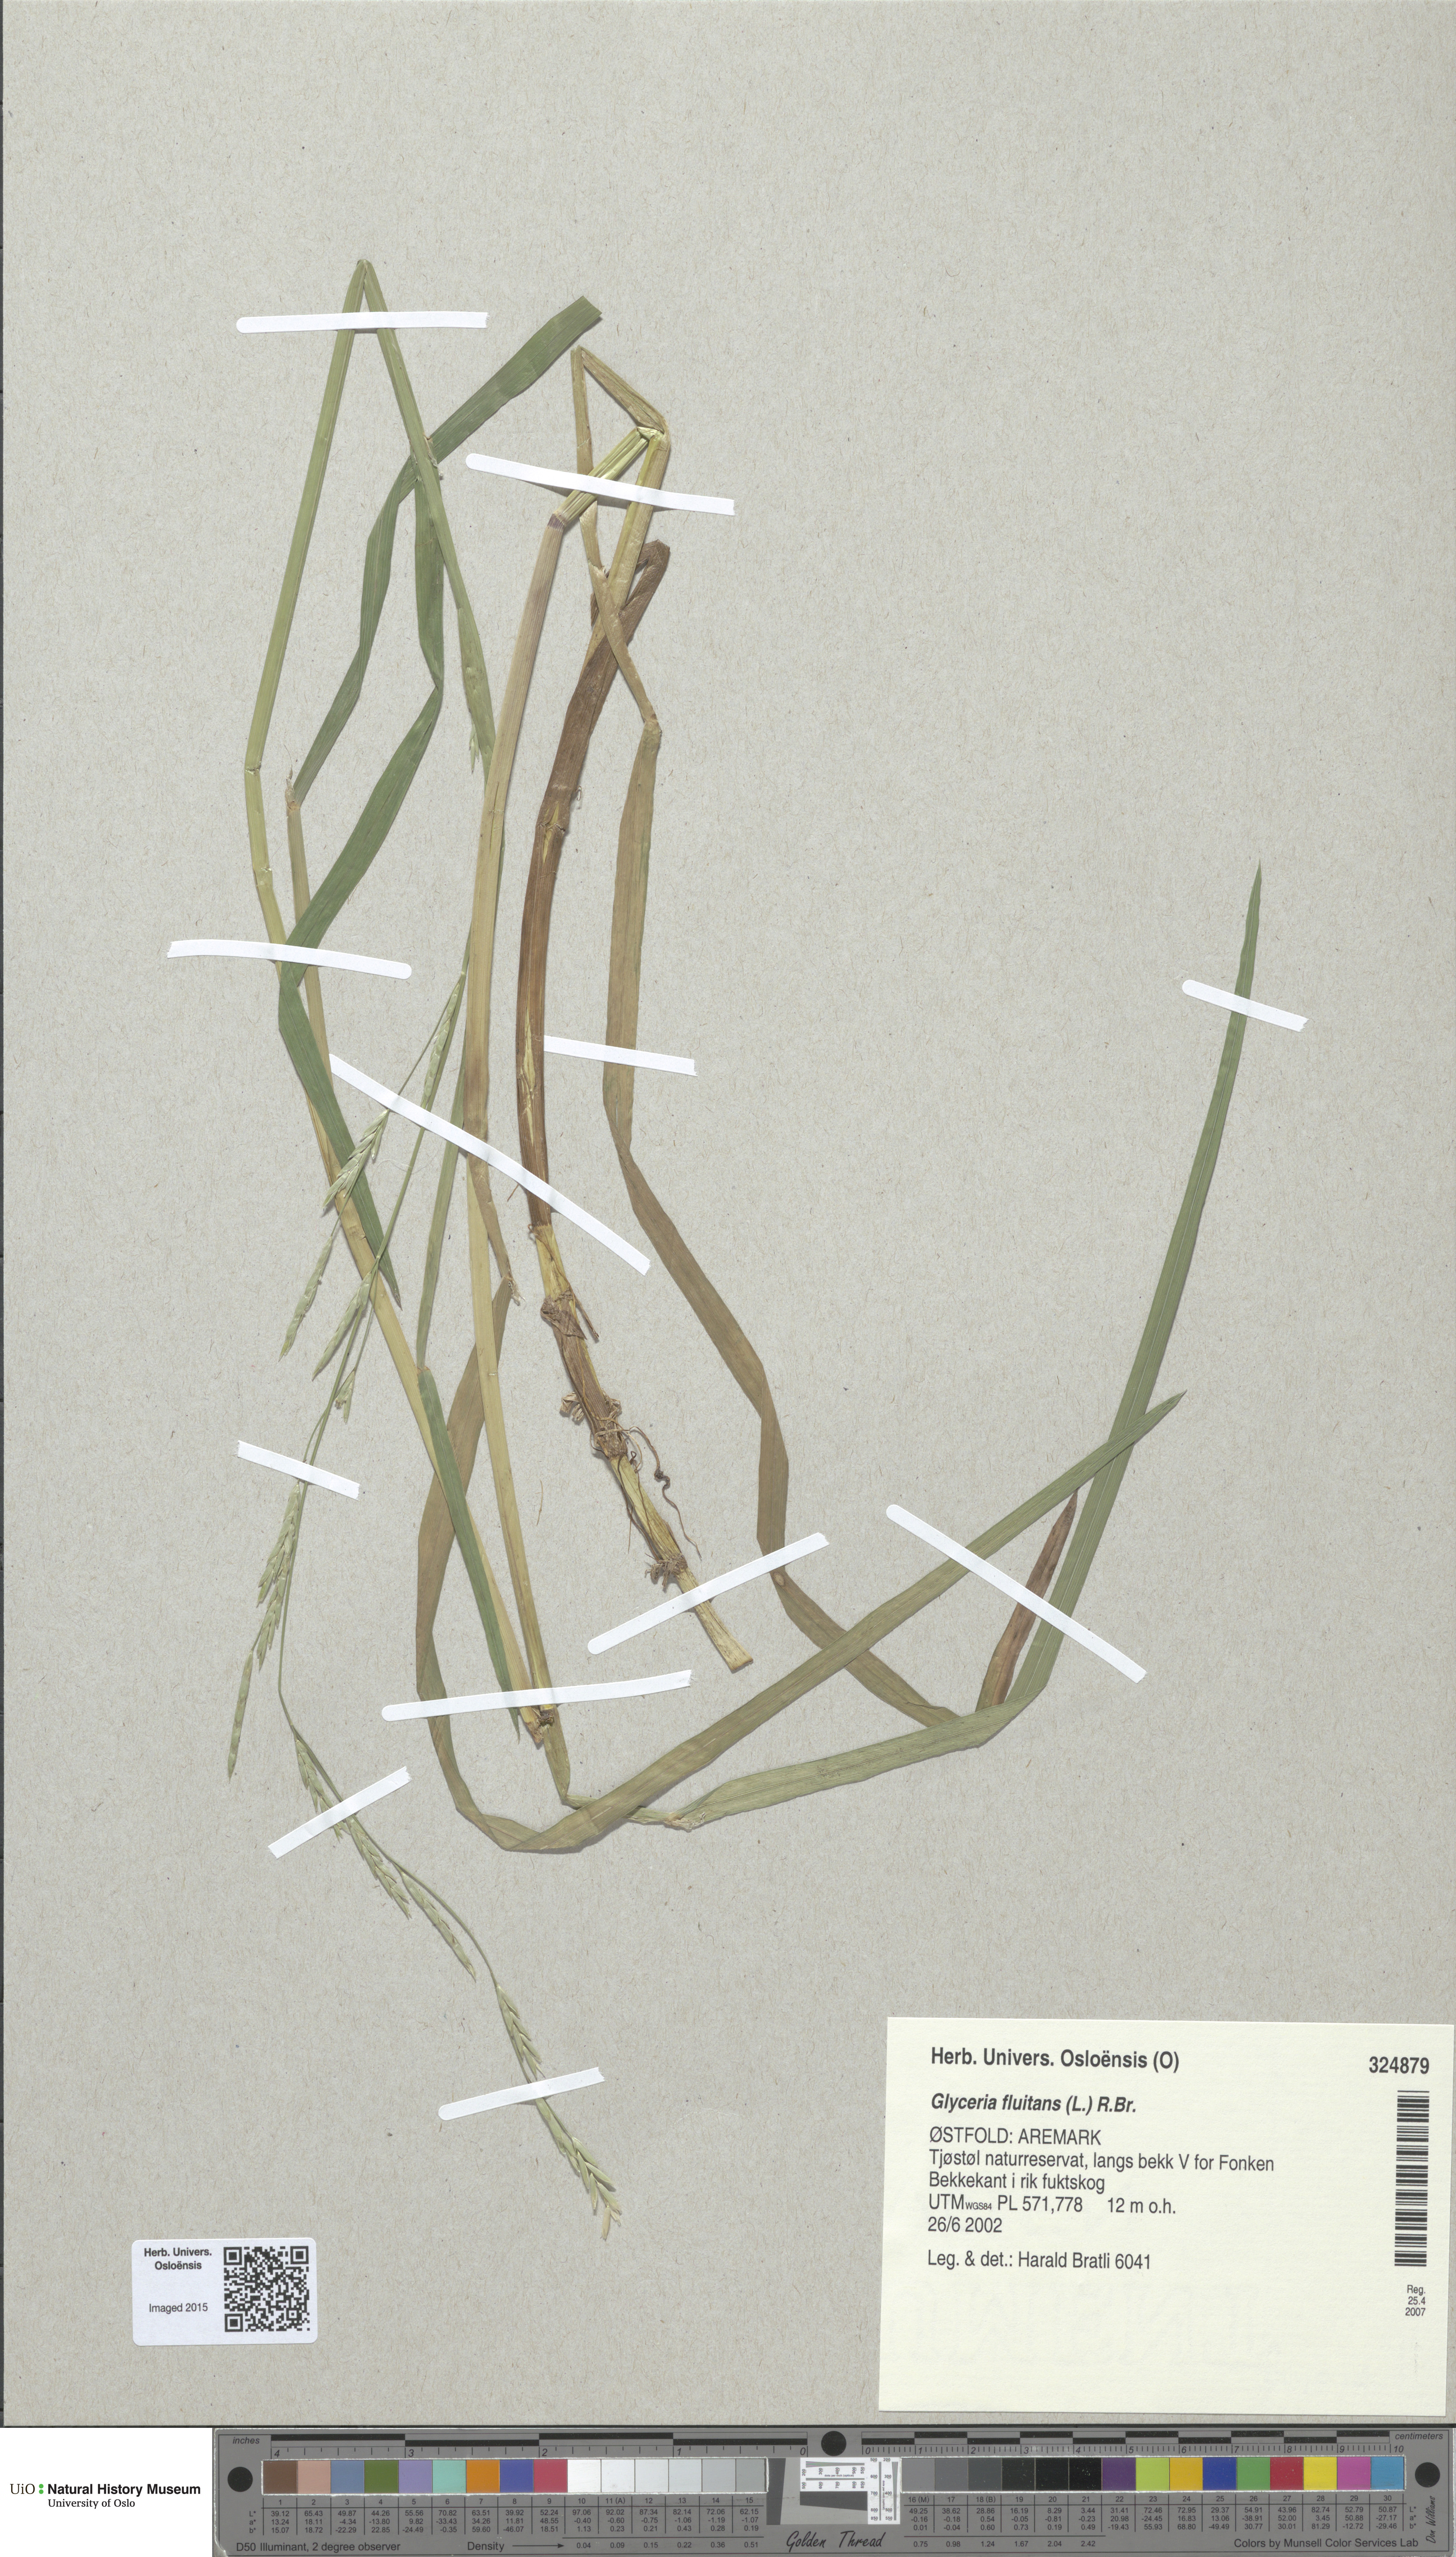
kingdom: Plantae
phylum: Tracheophyta
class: Liliopsida
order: Poales
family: Poaceae
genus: Glyceria
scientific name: Glyceria fluitans
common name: Floating sweet-grass
